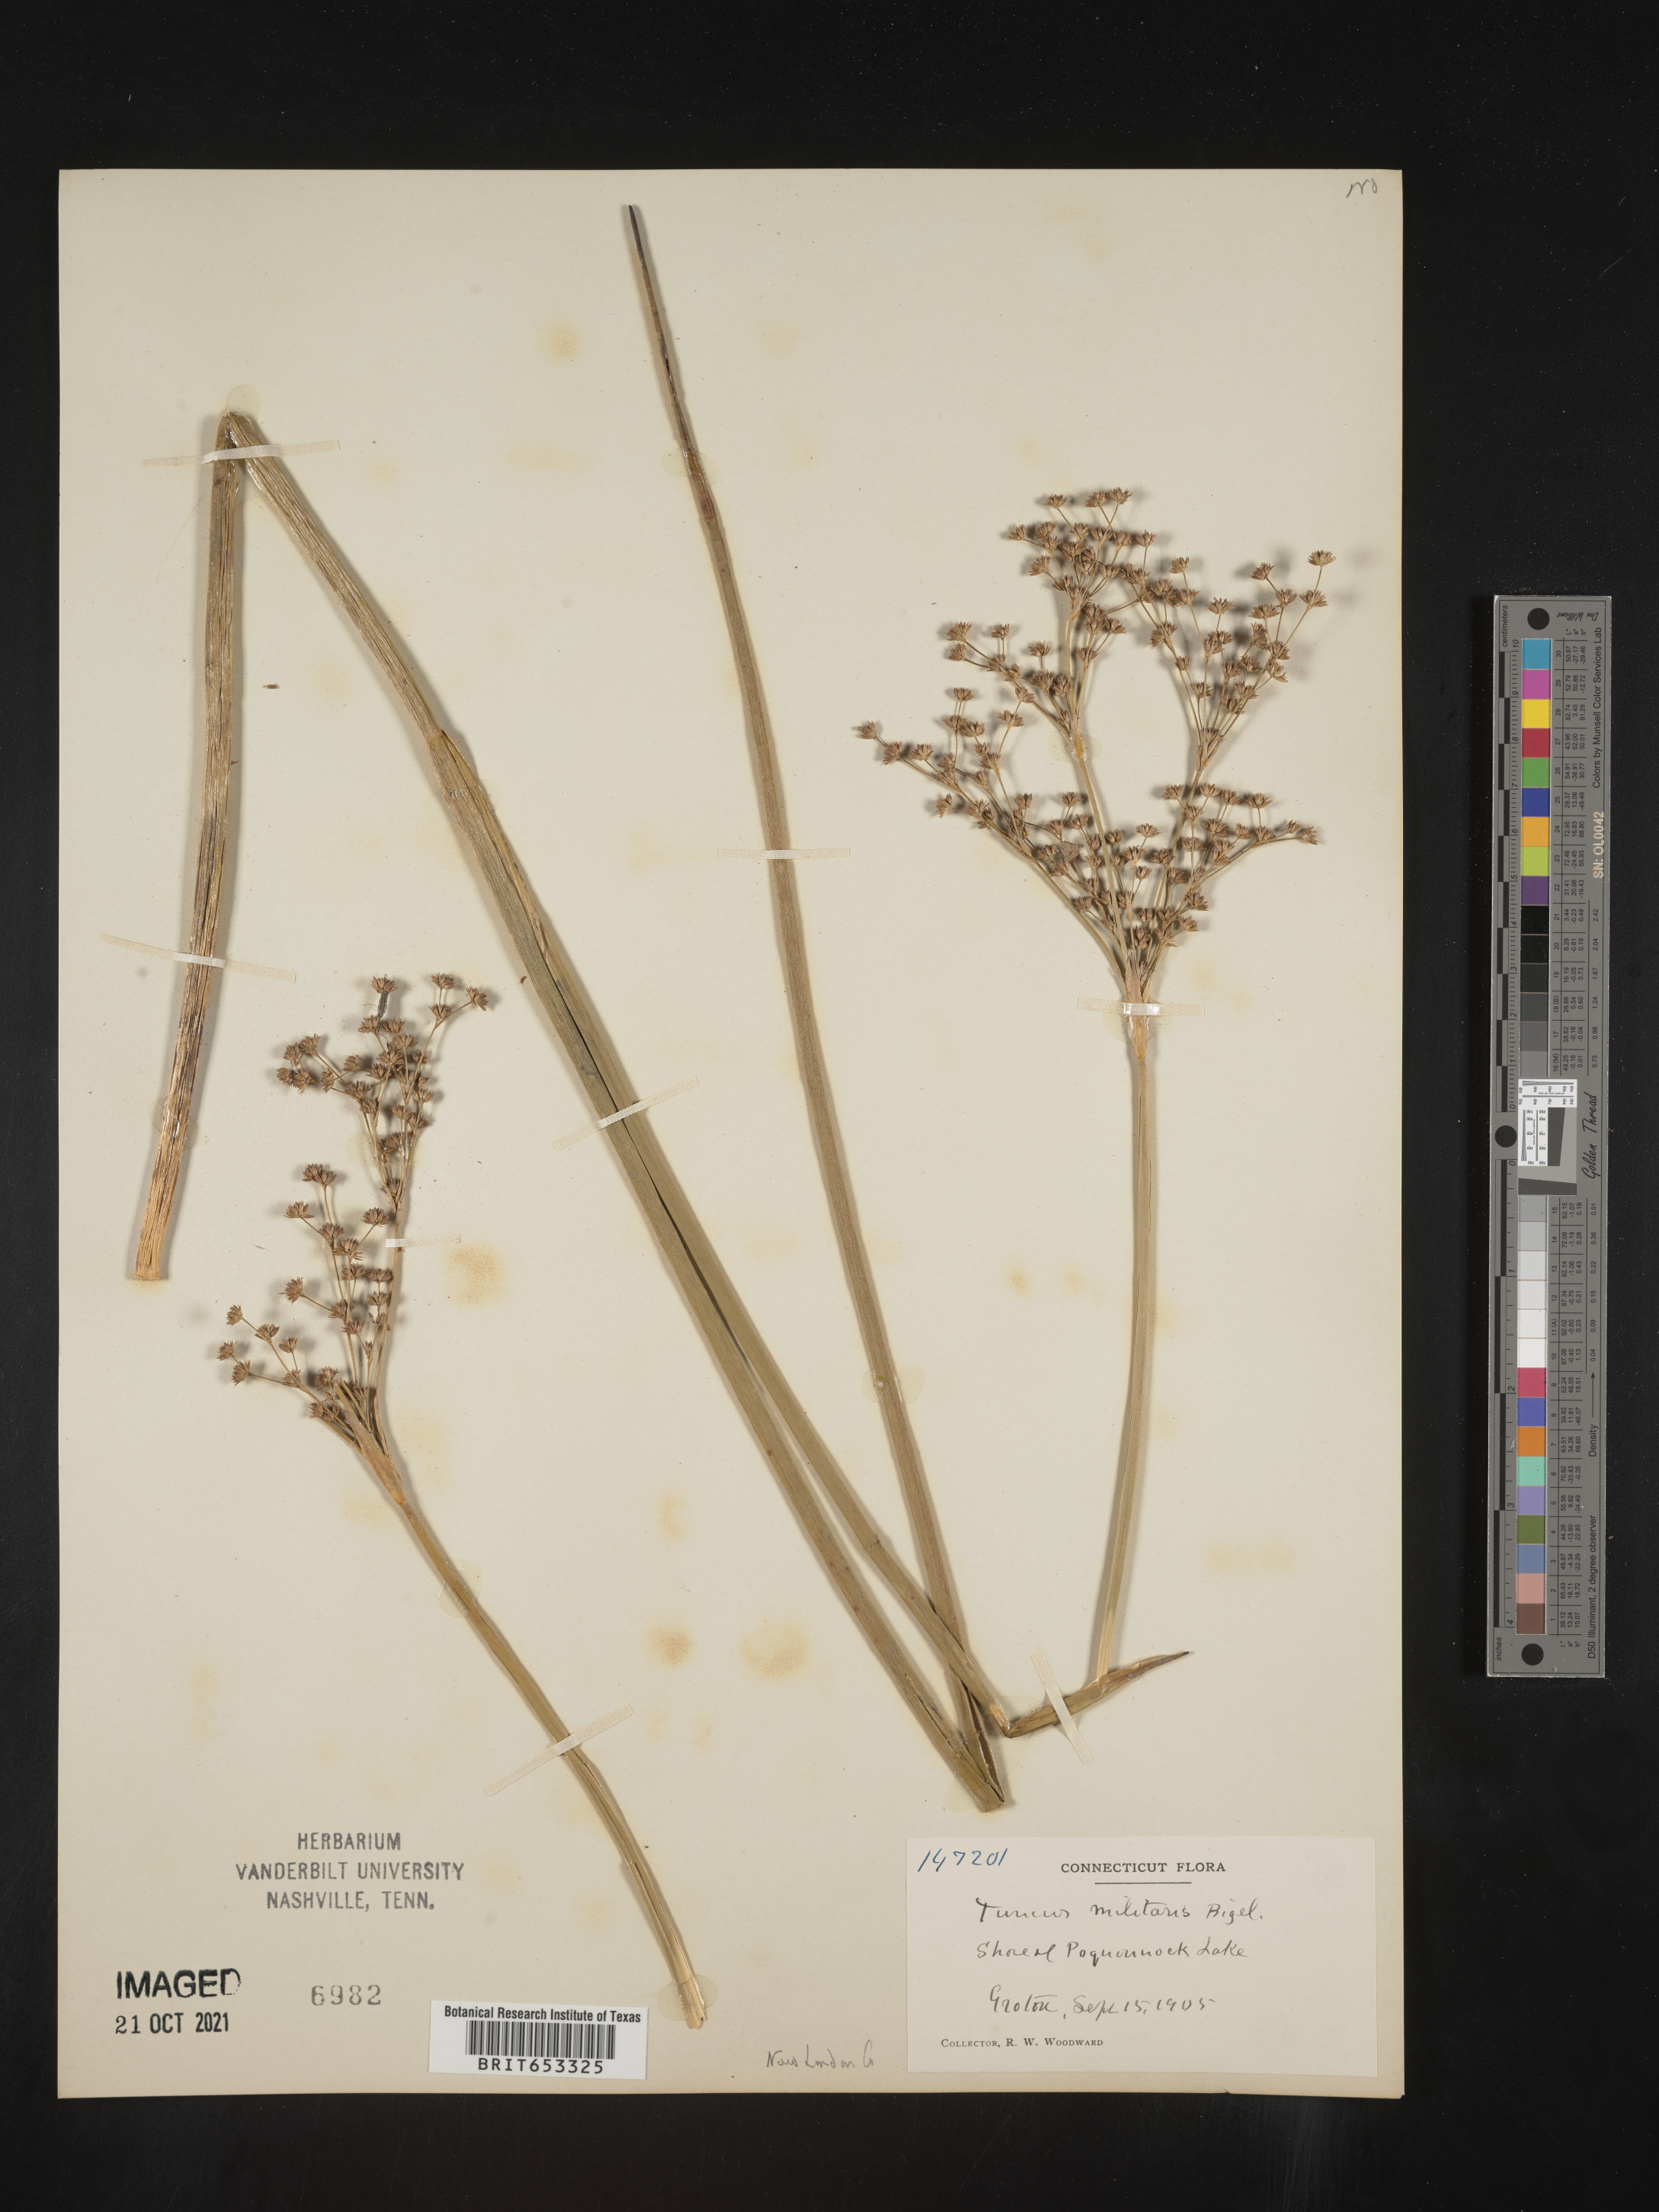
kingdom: Plantae
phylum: Tracheophyta
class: Liliopsida
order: Poales
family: Juncaceae
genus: Juncus
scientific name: Juncus militaris
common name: Bayonet rush
